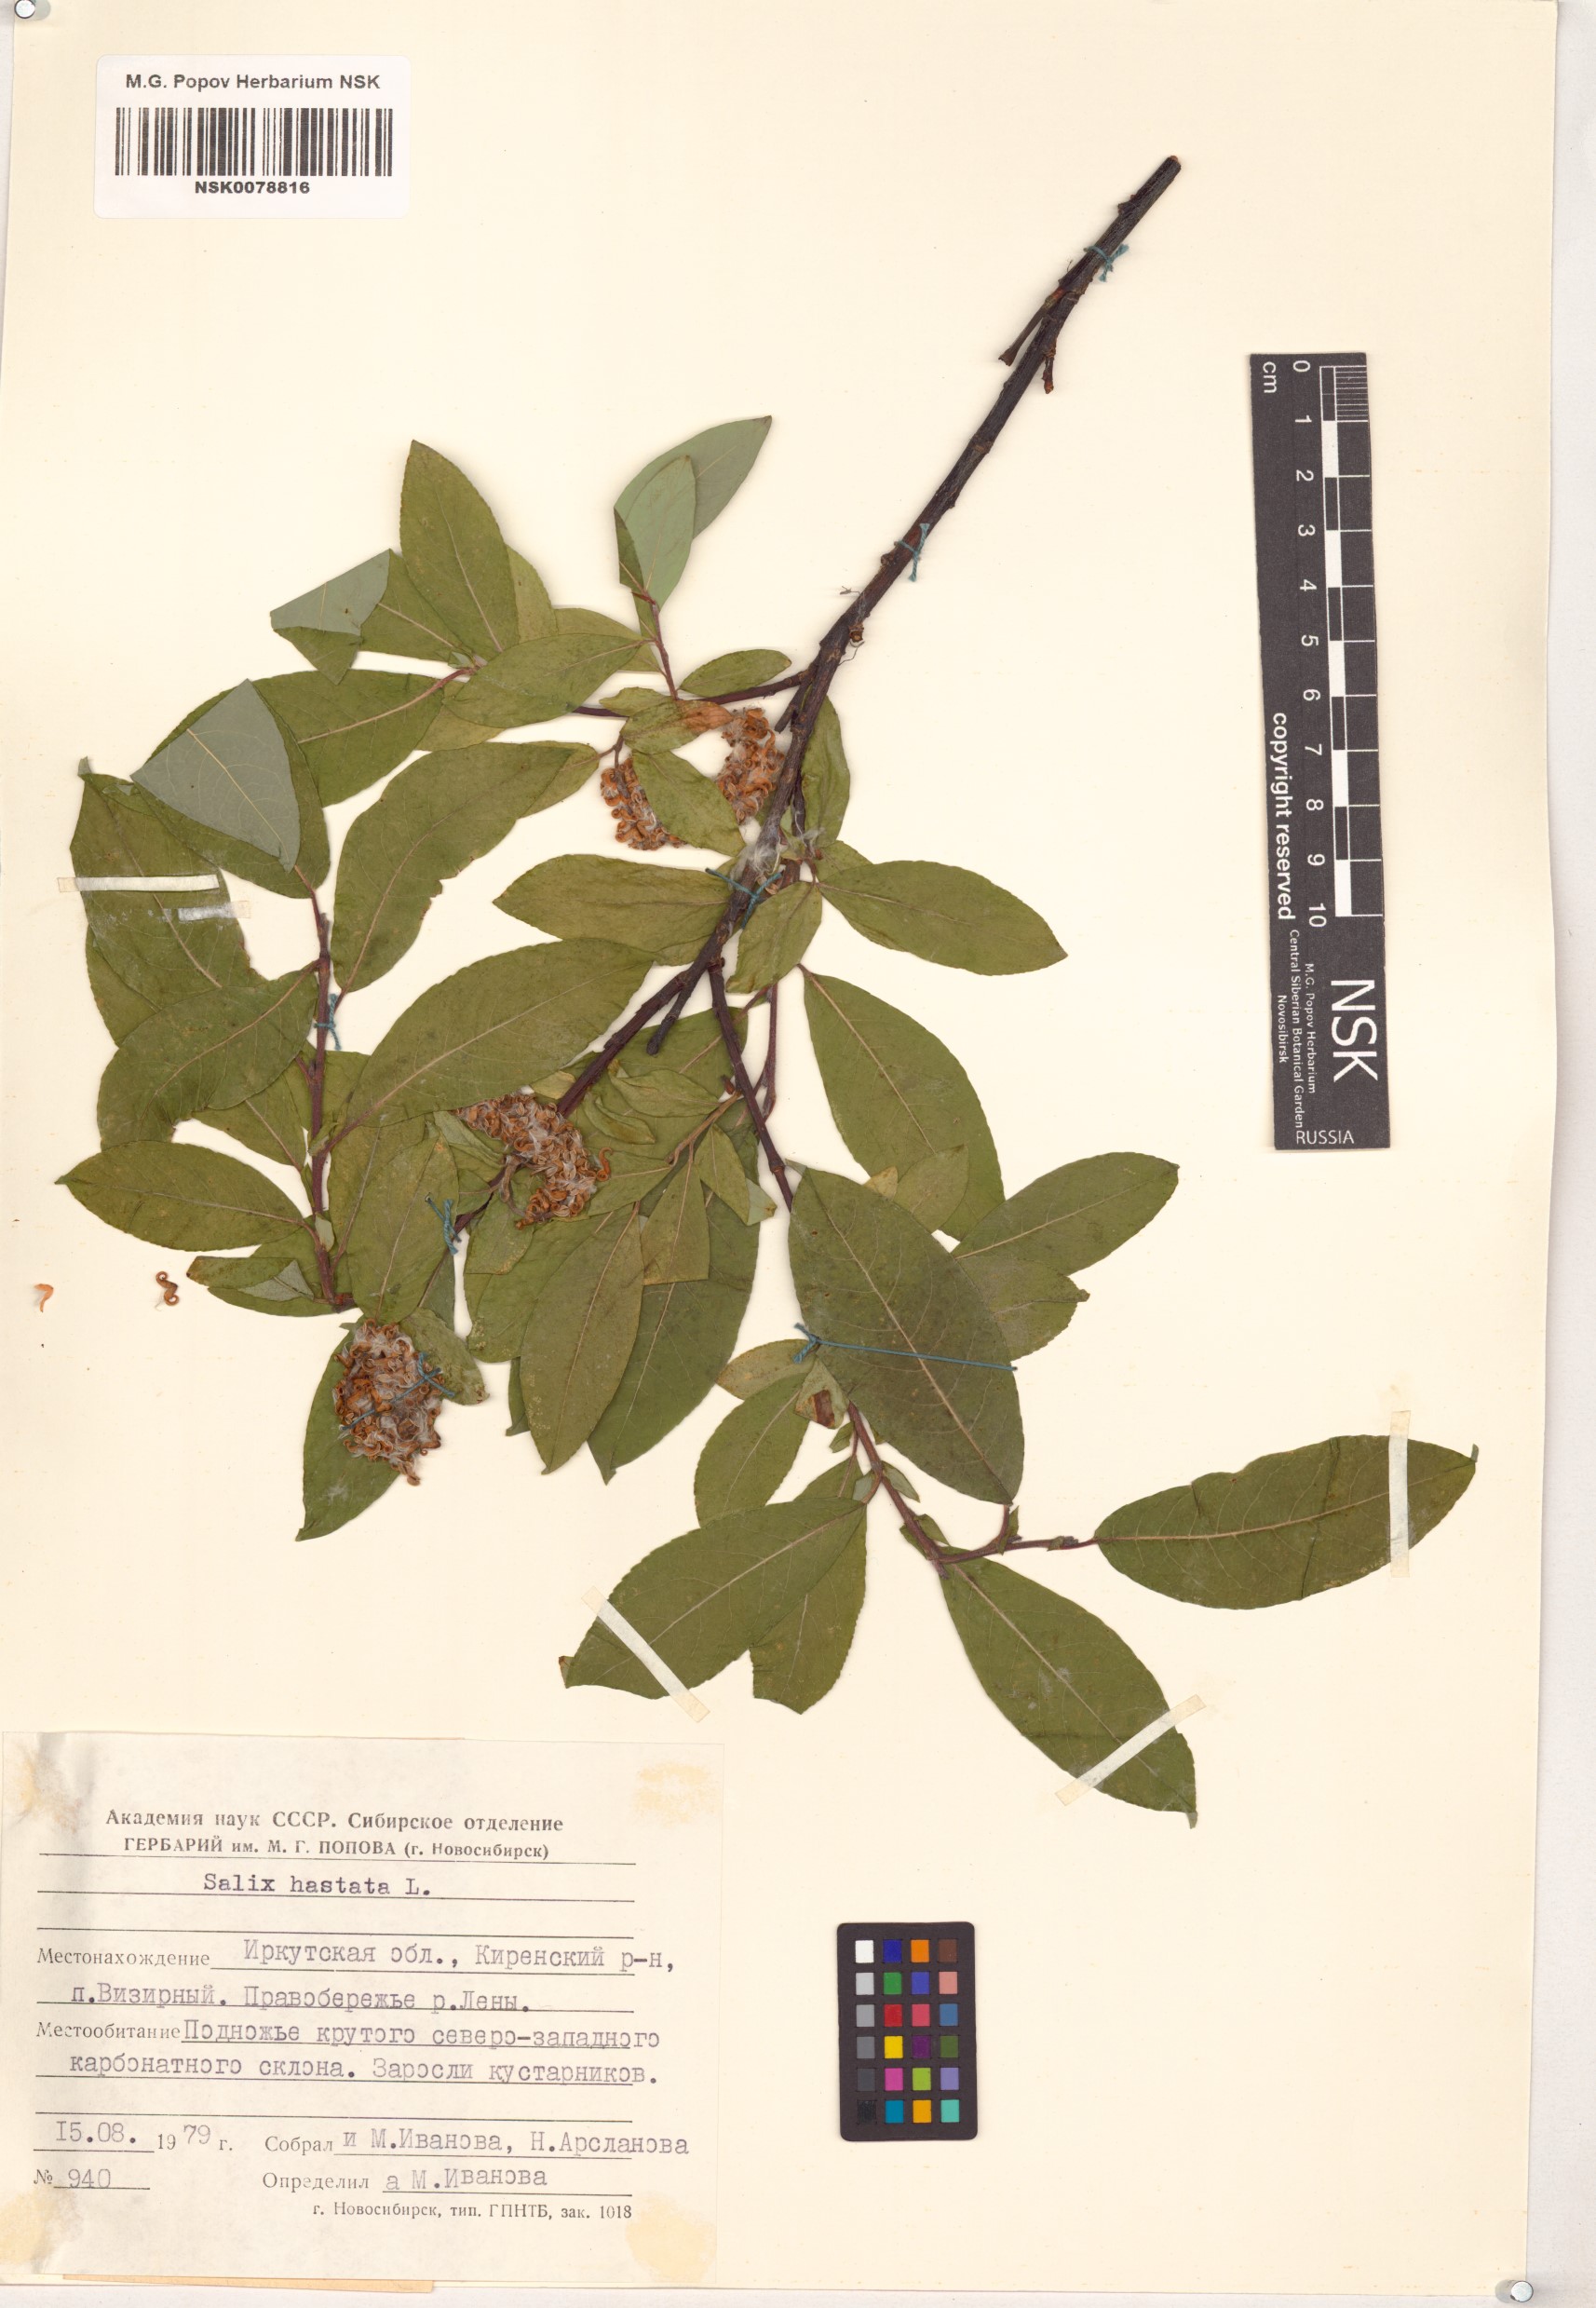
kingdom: Plantae
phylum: Tracheophyta
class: Magnoliopsida
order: Malpighiales
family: Salicaceae
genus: Salix
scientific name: Salix hastata
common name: Halberd willow
